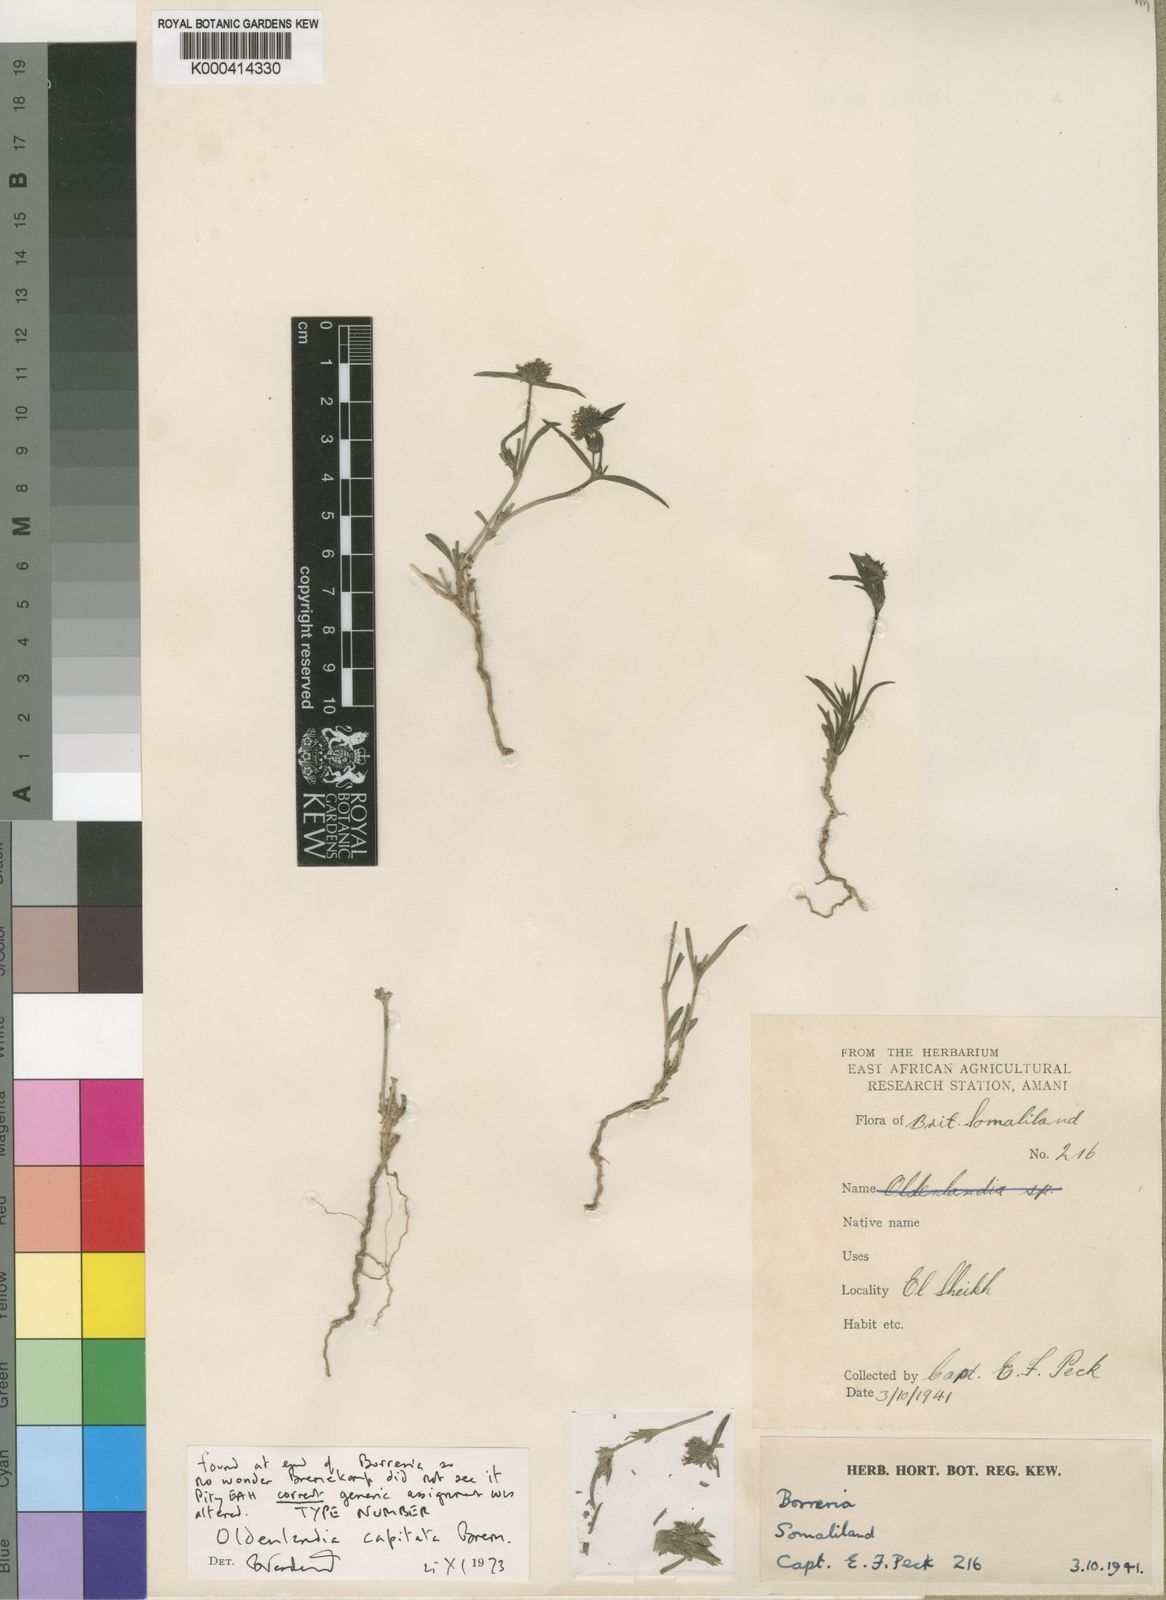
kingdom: Plantae
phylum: Tracheophyta
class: Magnoliopsida
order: Gentianales
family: Rubiaceae
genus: Oldenlandia
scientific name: Oldenlandia ichthyoderma
